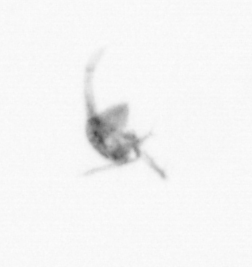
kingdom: Animalia
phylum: Arthropoda
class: Copepoda
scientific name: Copepoda
